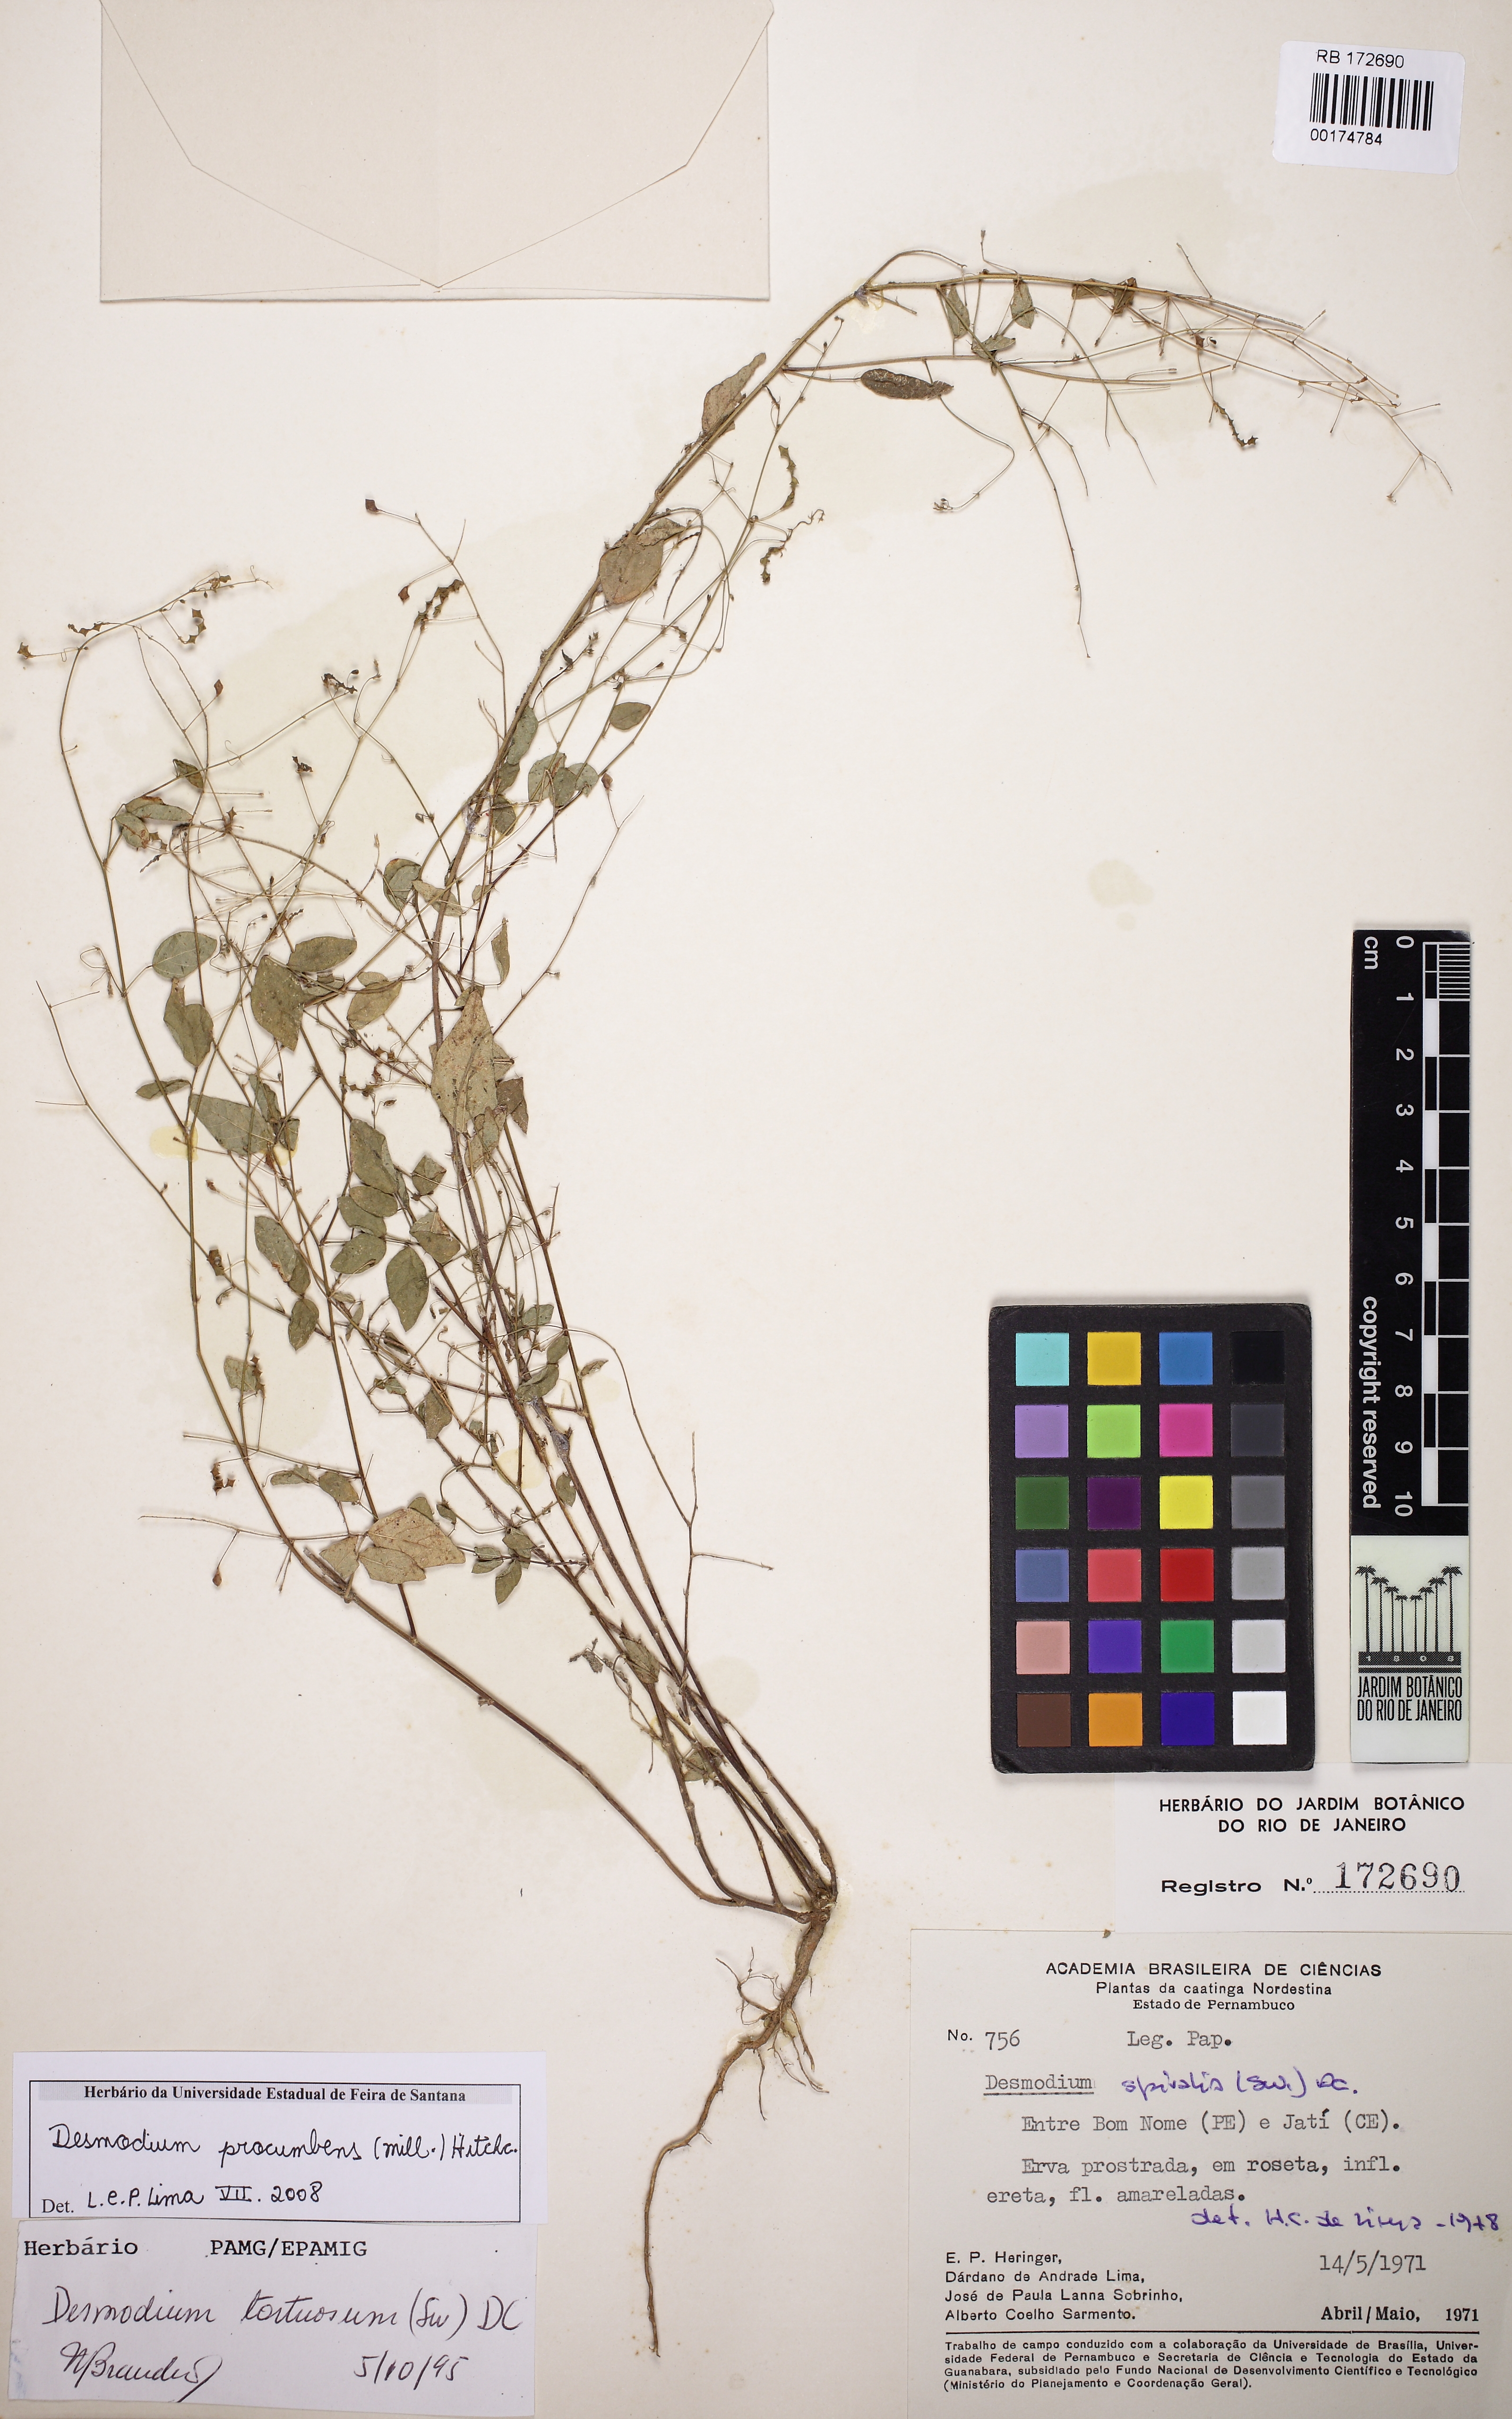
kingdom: Plantae
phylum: Tracheophyta
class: Magnoliopsida
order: Fabales
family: Fabaceae
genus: Desmodium
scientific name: Desmodium procumbens
